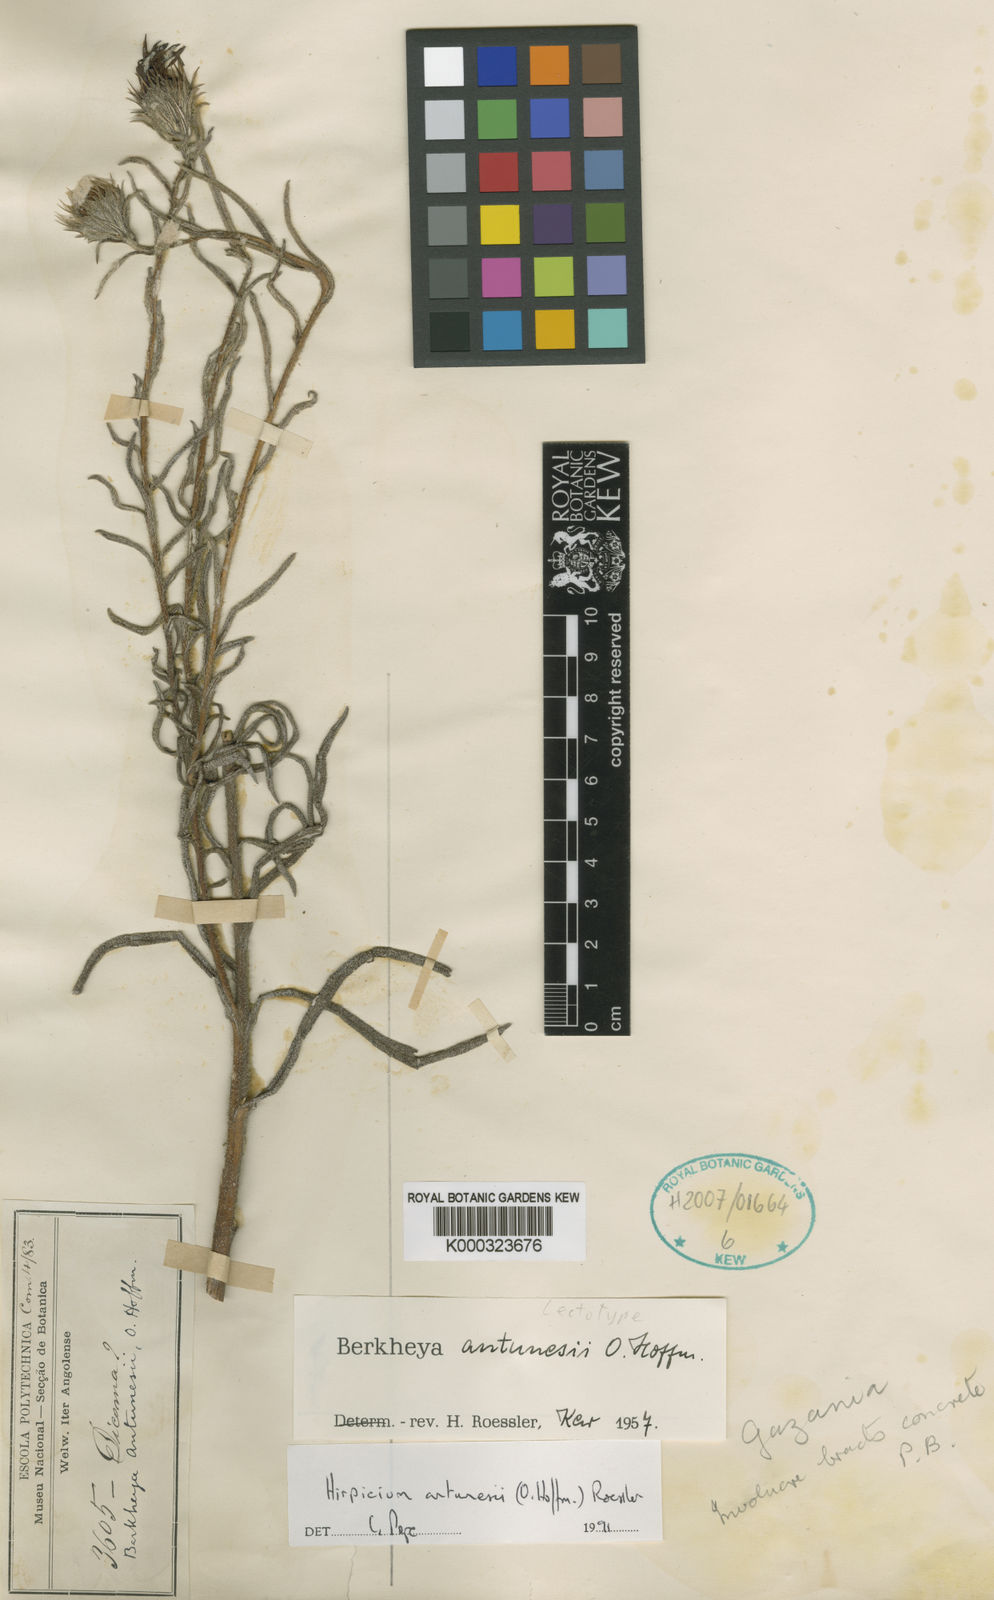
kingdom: Plantae
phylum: Tracheophyta
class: Magnoliopsida
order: Asterales
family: Asteraceae
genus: Gorteria
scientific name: Gorteria antunesii
